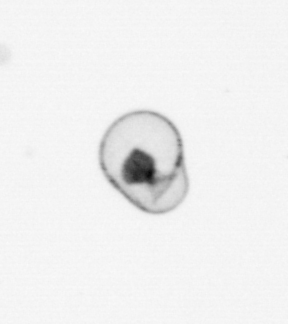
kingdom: Chromista
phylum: Myzozoa
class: Dinophyceae
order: Noctilucales
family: Noctilucaceae
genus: Noctiluca
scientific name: Noctiluca scintillans
